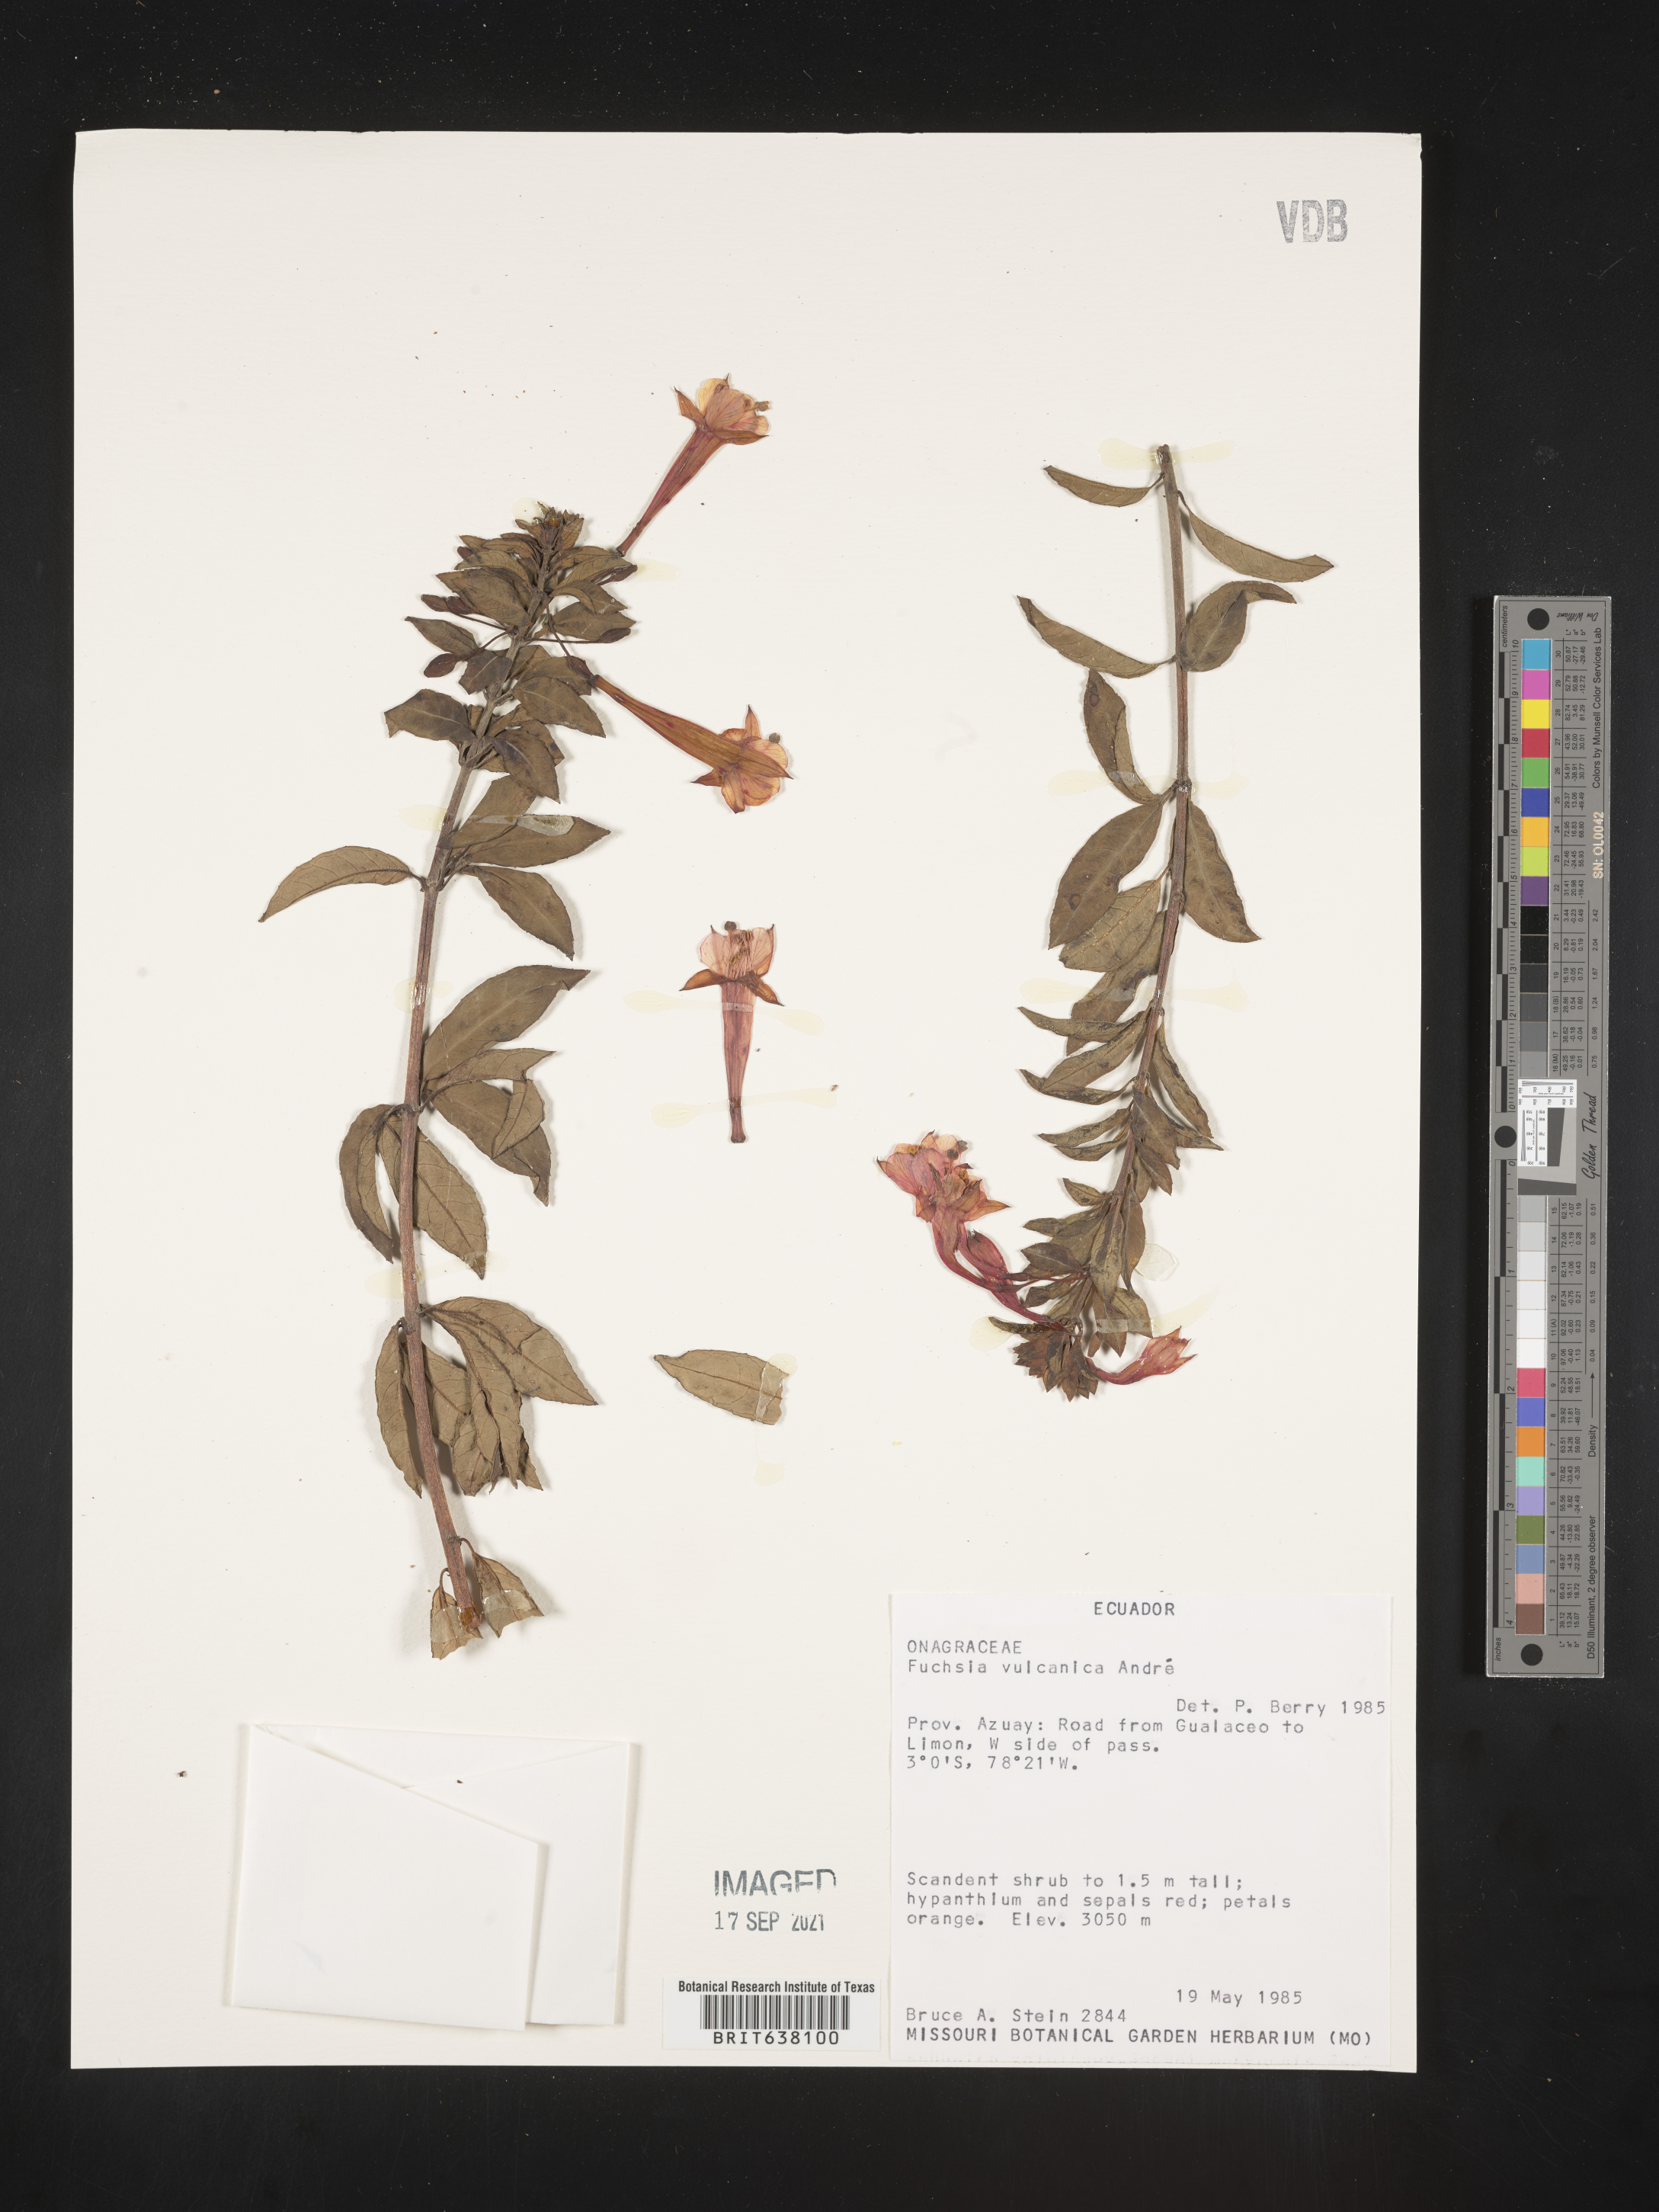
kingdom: Plantae
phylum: Tracheophyta
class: Magnoliopsida
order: Myrtales
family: Onagraceae
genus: Fuchsia
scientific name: Fuchsia
